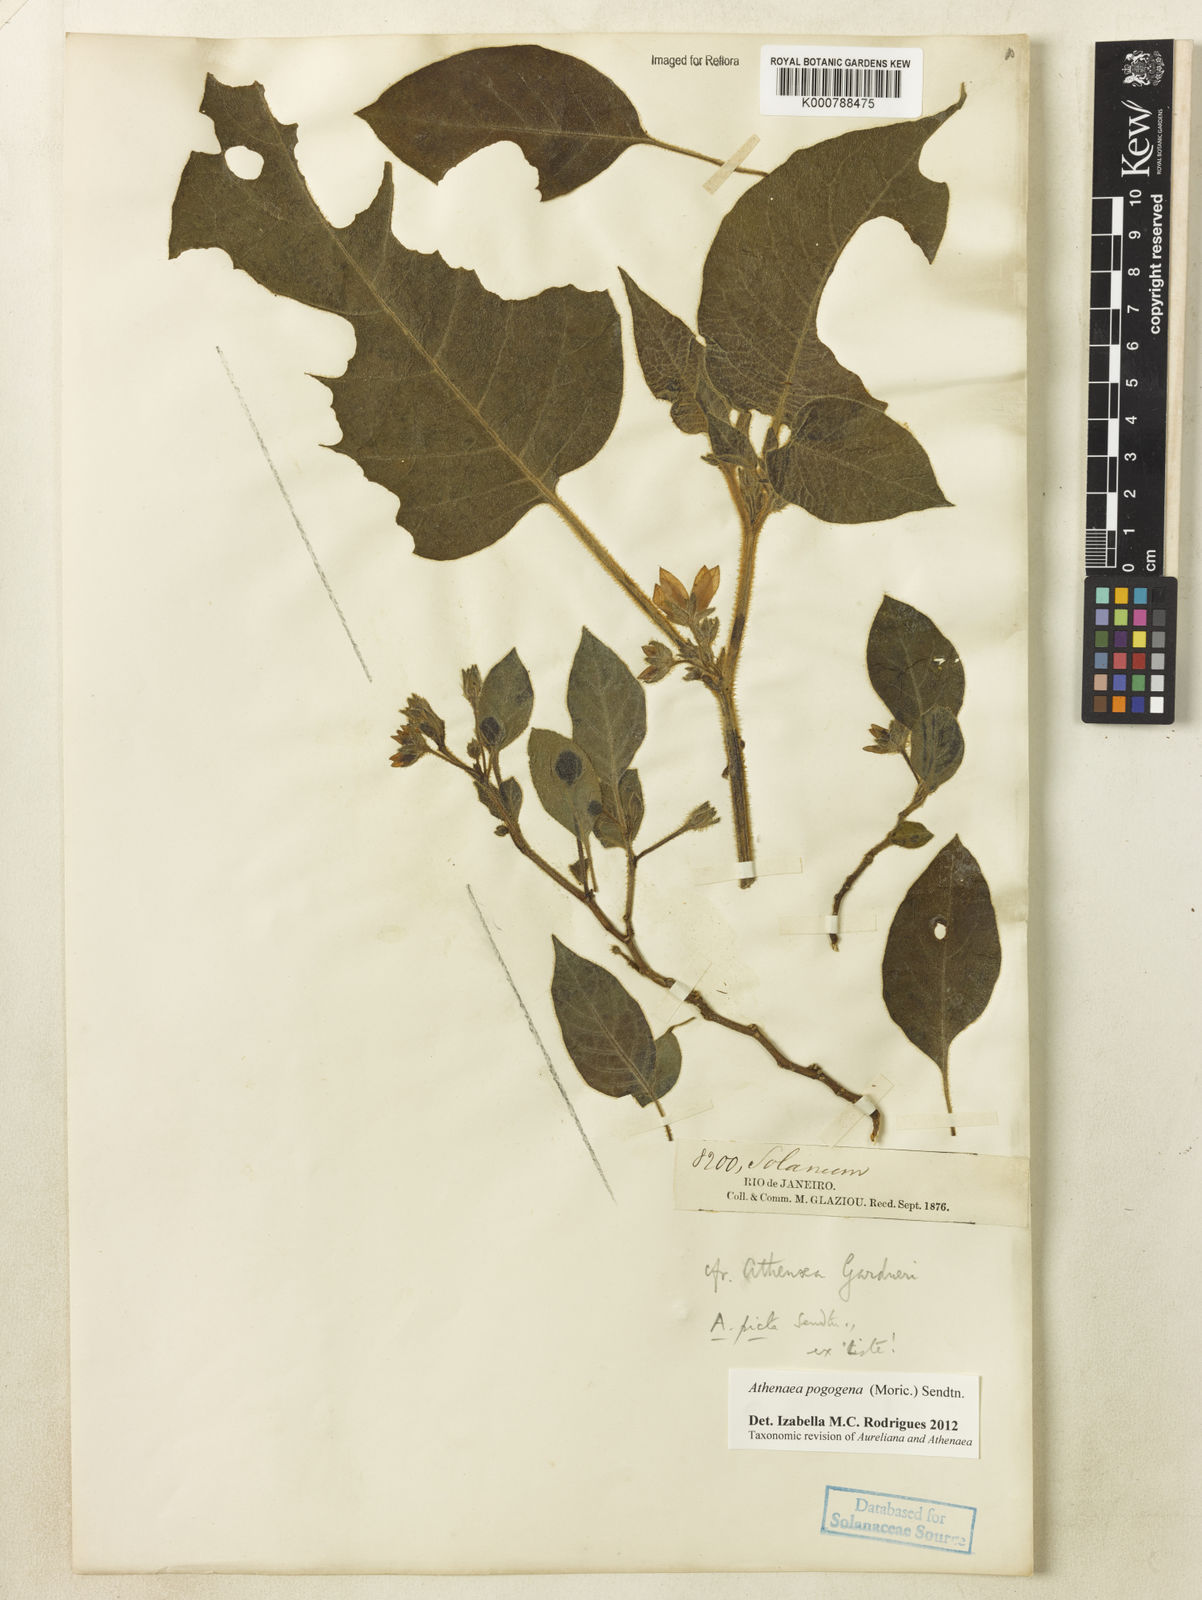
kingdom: Plantae
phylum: Tracheophyta
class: Magnoliopsida
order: Solanales
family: Solanaceae
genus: Athenaea
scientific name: Athenaea picta
